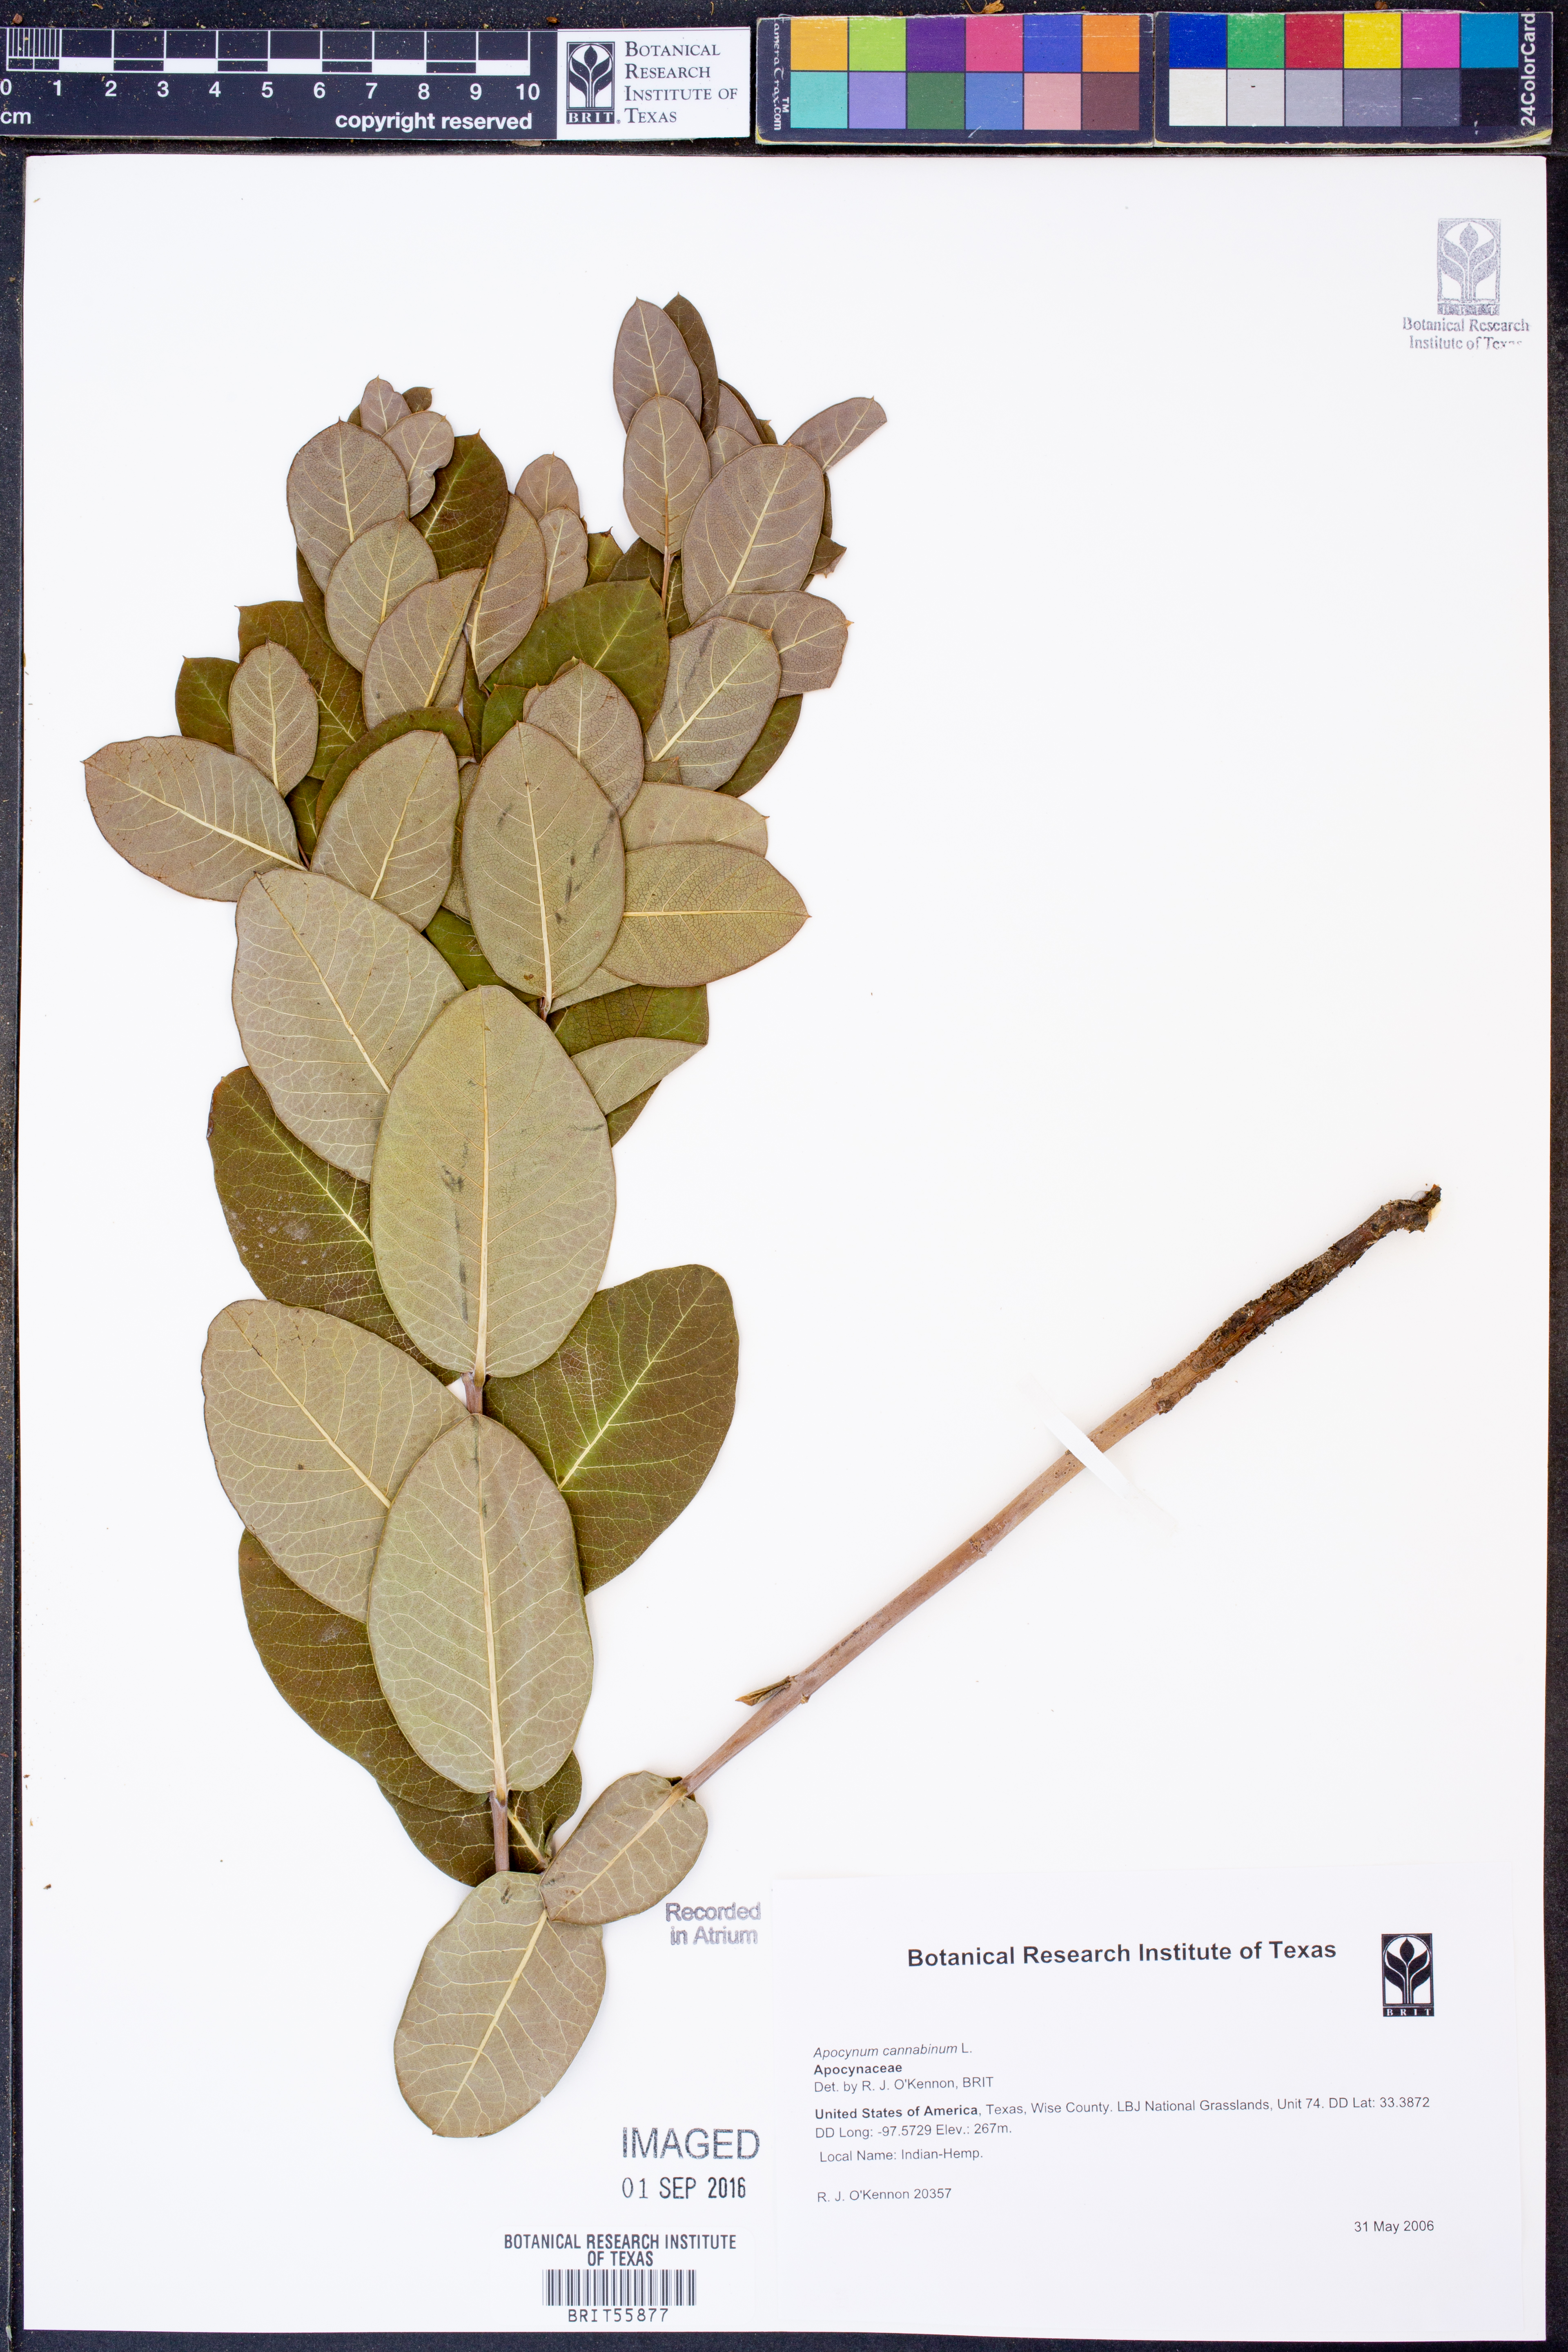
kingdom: Plantae
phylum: Tracheophyta
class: Magnoliopsida
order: Gentianales
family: Apocynaceae
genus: Apocynum
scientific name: Apocynum cannabinum
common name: Hemp dogbane
